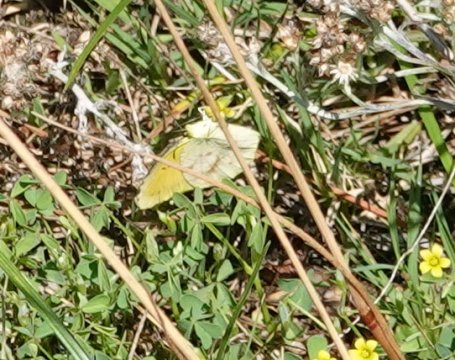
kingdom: Animalia
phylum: Arthropoda
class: Insecta
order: Lepidoptera
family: Pieridae
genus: Abaeis
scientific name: Abaeis nicippe
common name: Sleepy Orange
